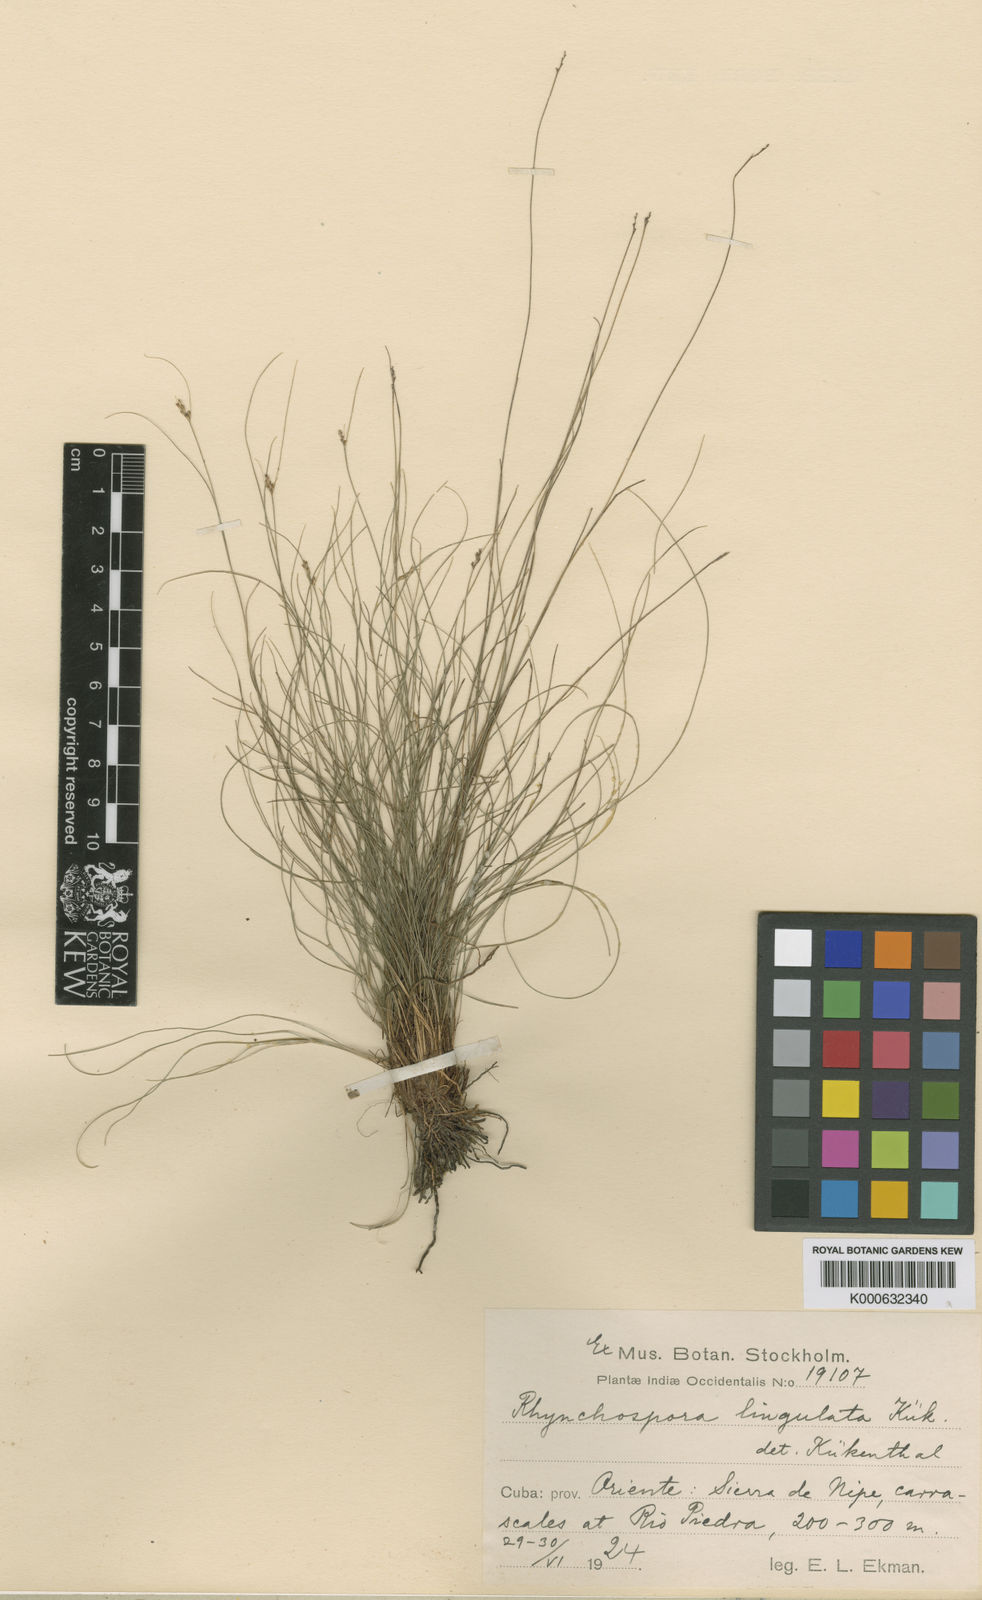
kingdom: Plantae
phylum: Tracheophyta
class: Liliopsida
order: Poales
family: Cyperaceae
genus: Rhynchospora
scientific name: Rhynchospora
